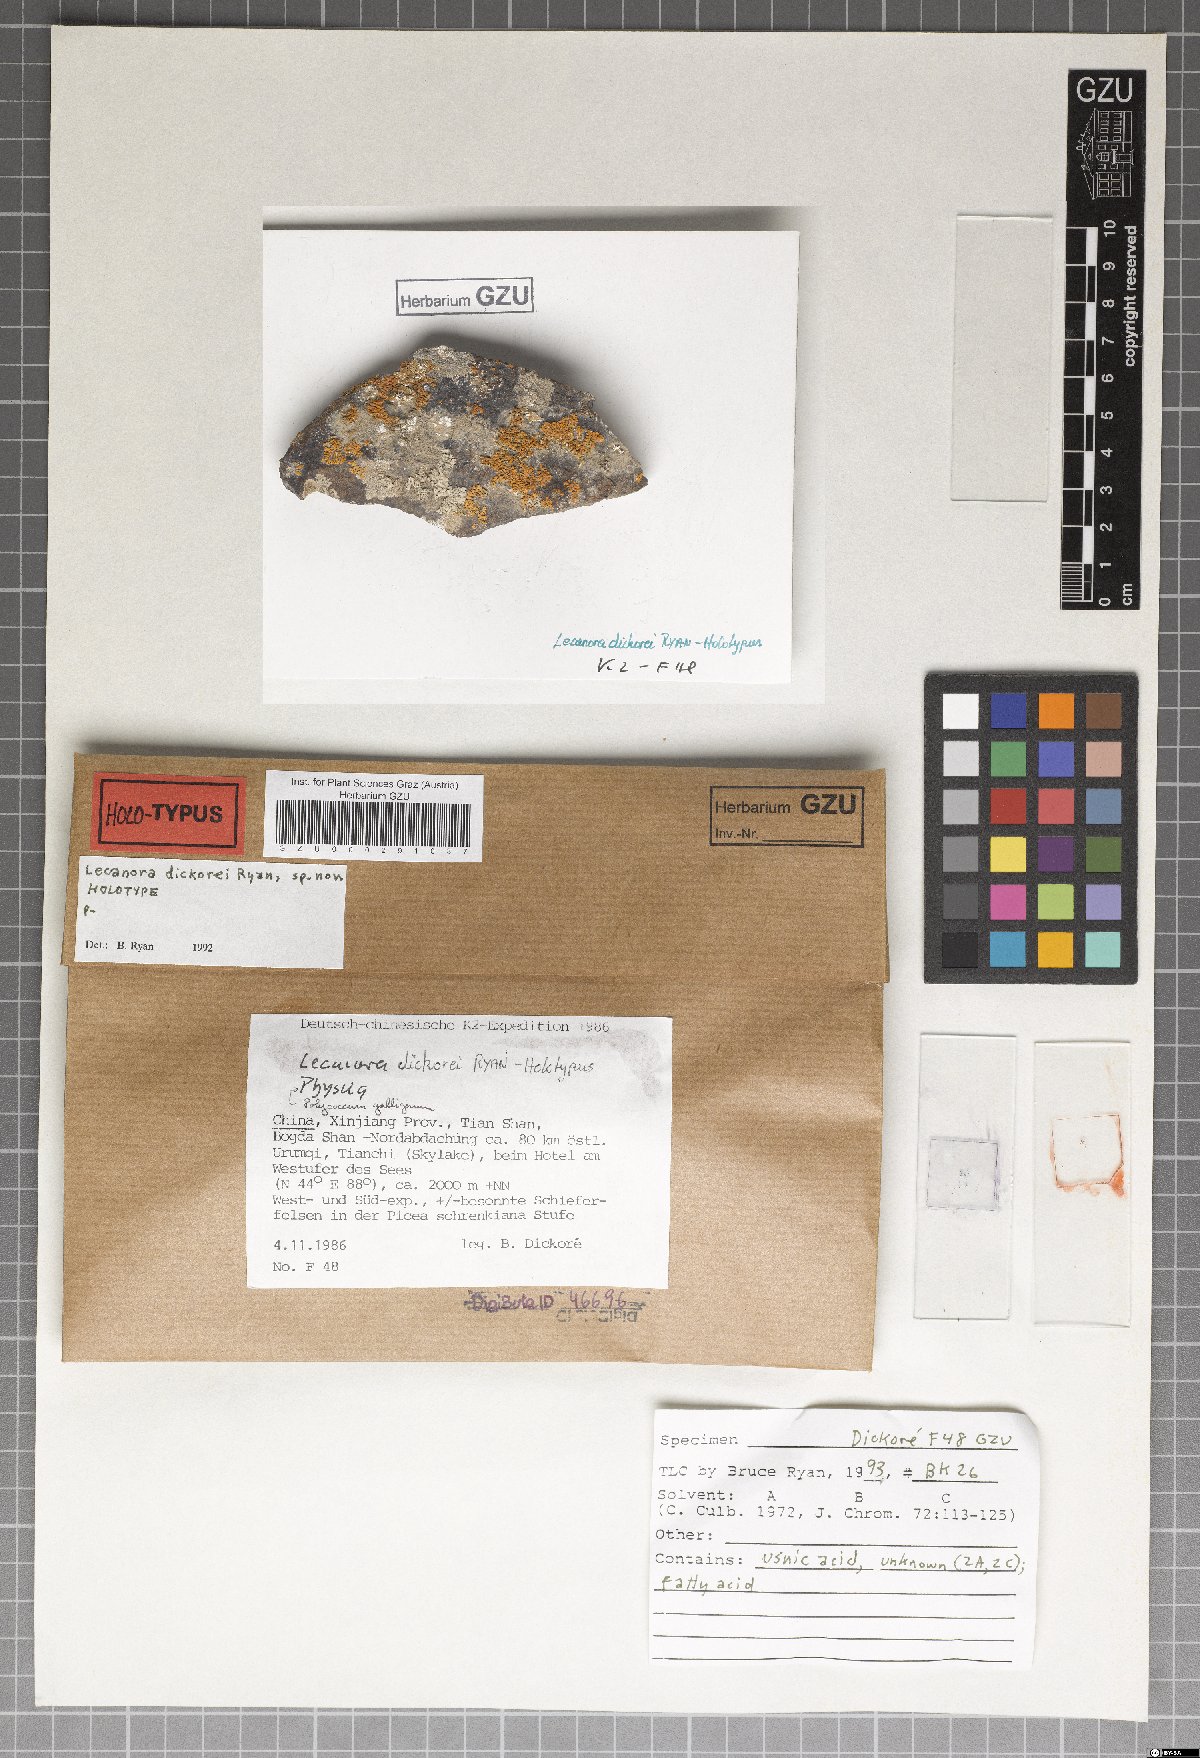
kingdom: Fungi
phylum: Ascomycota
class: Lecanoromycetes
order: Lecanorales
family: Lecanoraceae
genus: Lecanora
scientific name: Lecanora
